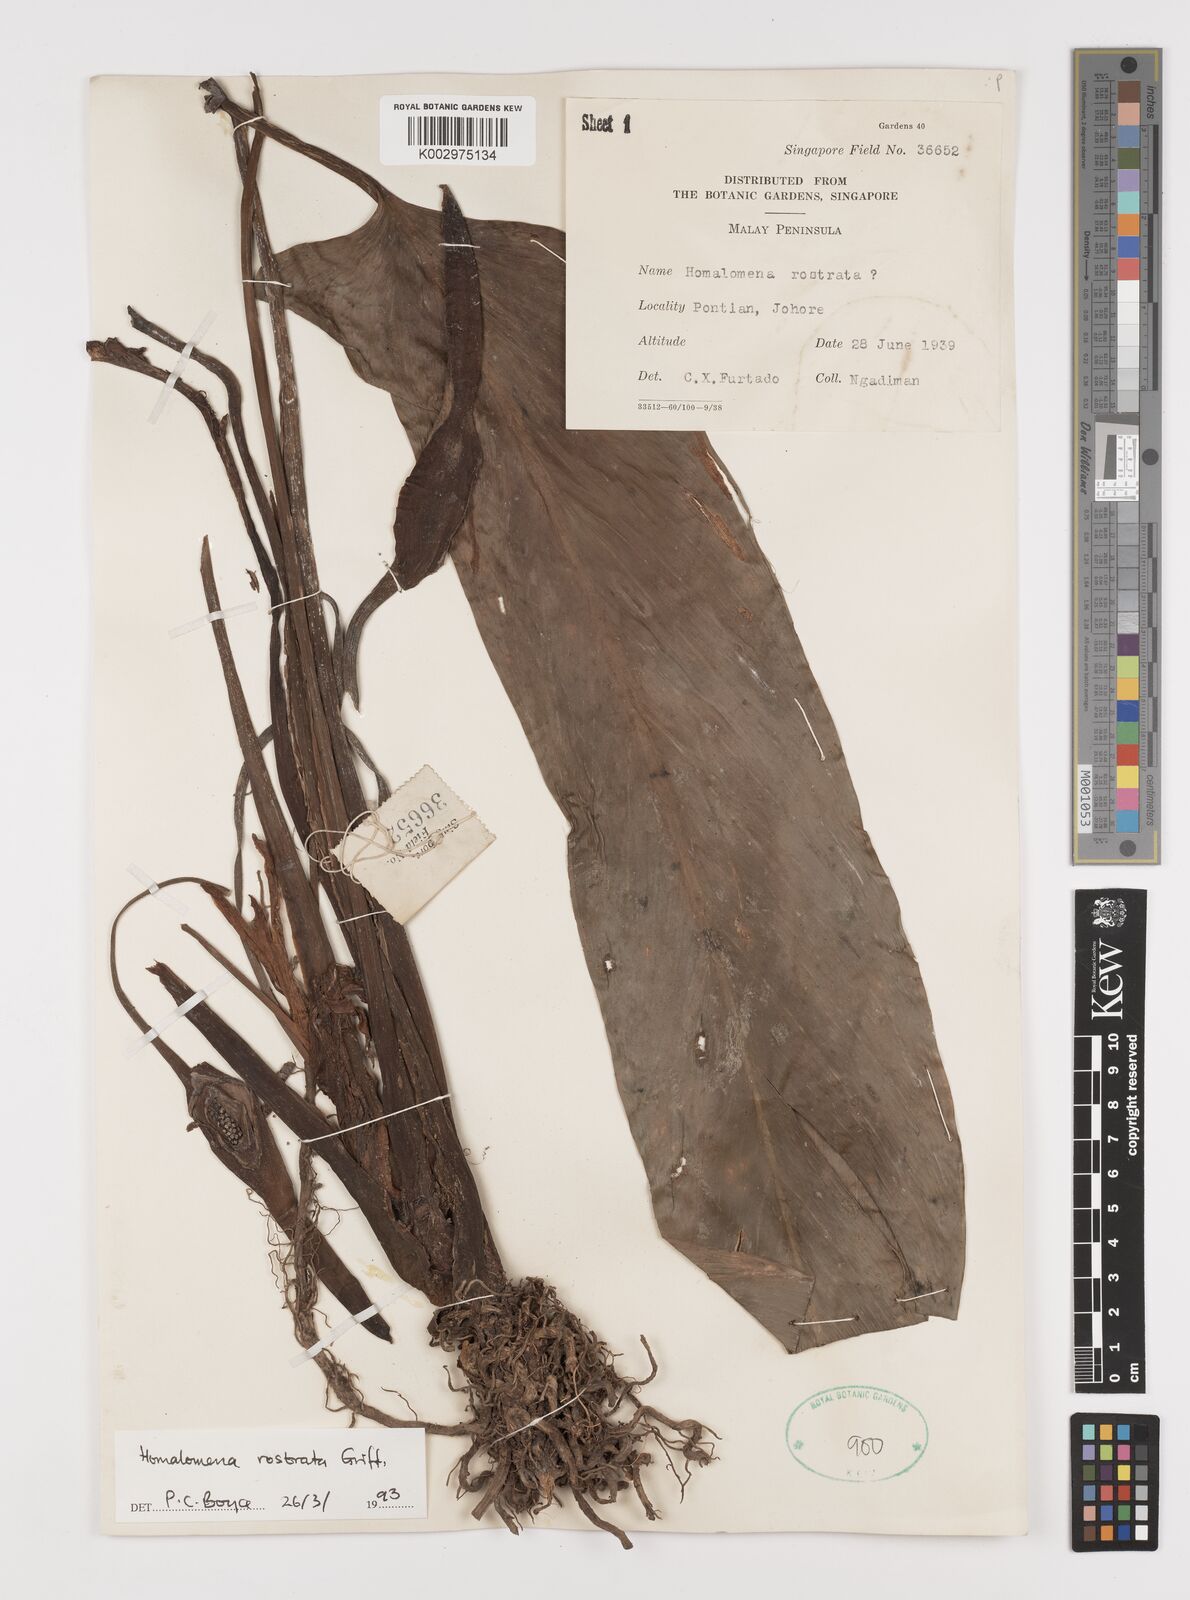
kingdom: Plantae
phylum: Tracheophyta
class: Liliopsida
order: Alismatales
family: Araceae
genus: Homalomena
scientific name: Homalomena rostrata
